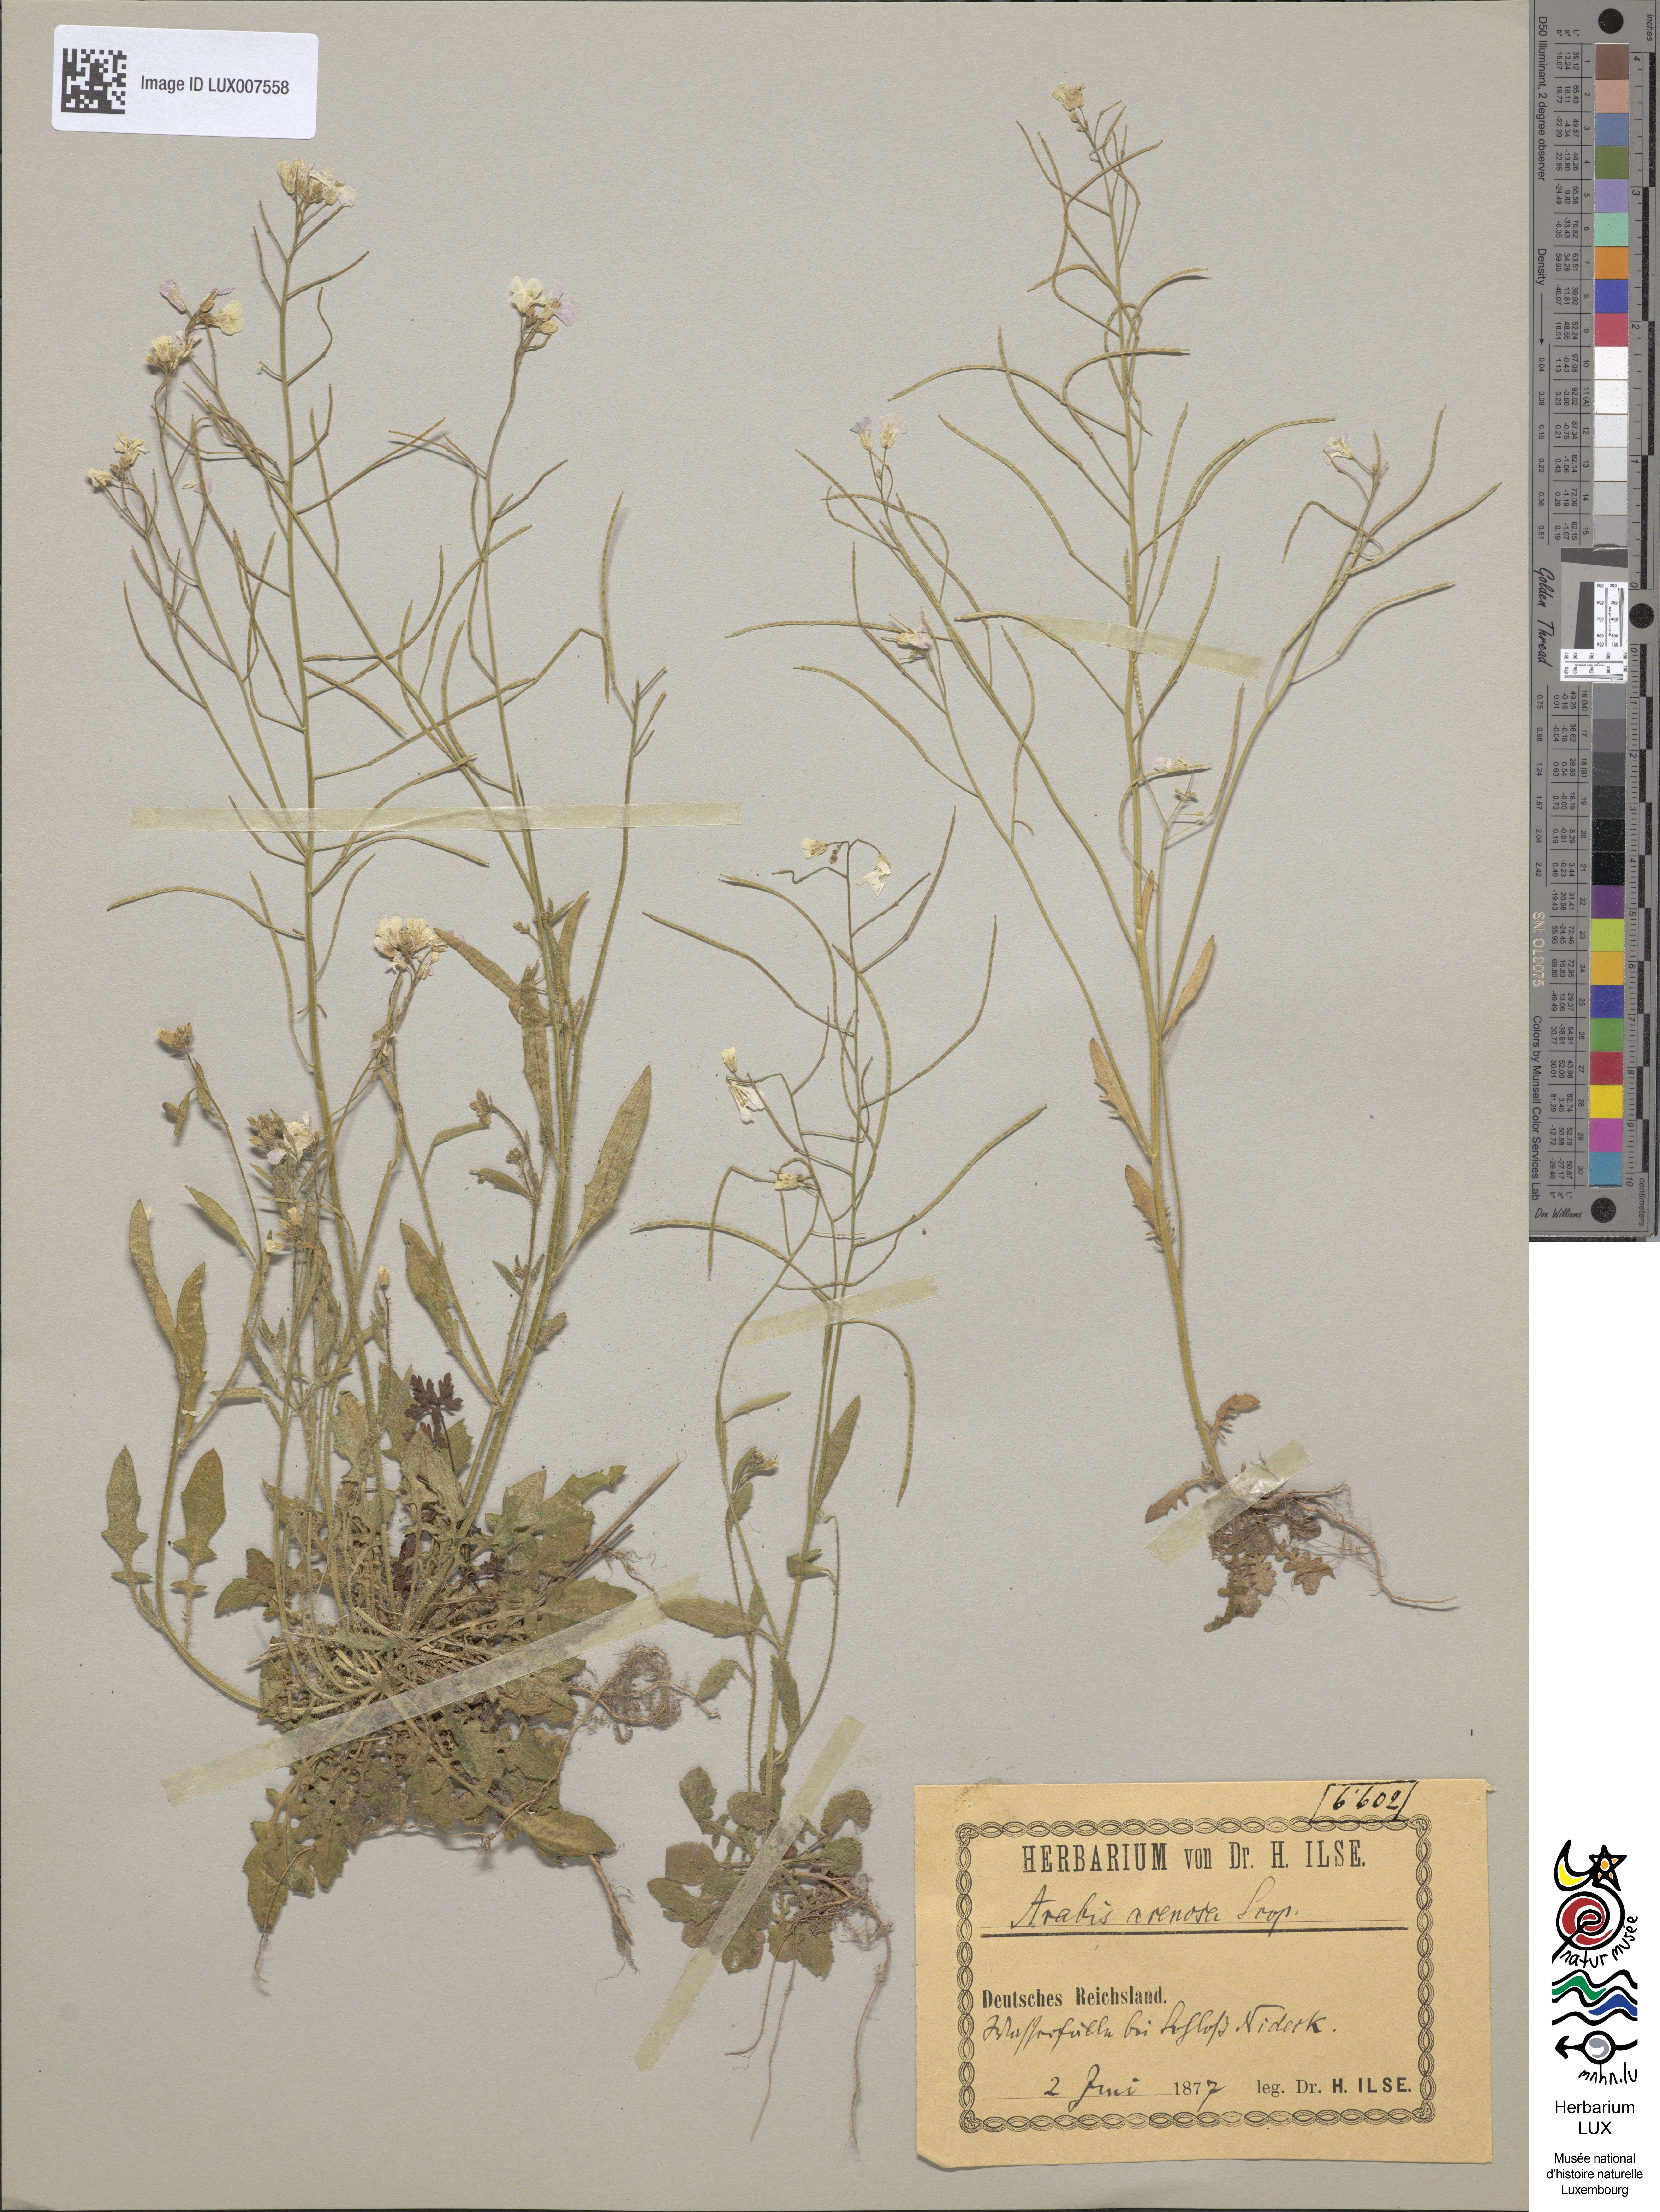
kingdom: Plantae
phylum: Tracheophyta
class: Magnoliopsida
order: Brassicales
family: Brassicaceae
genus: Arabidopsis
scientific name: Arabidopsis arenosa
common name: Sand rock-cress
